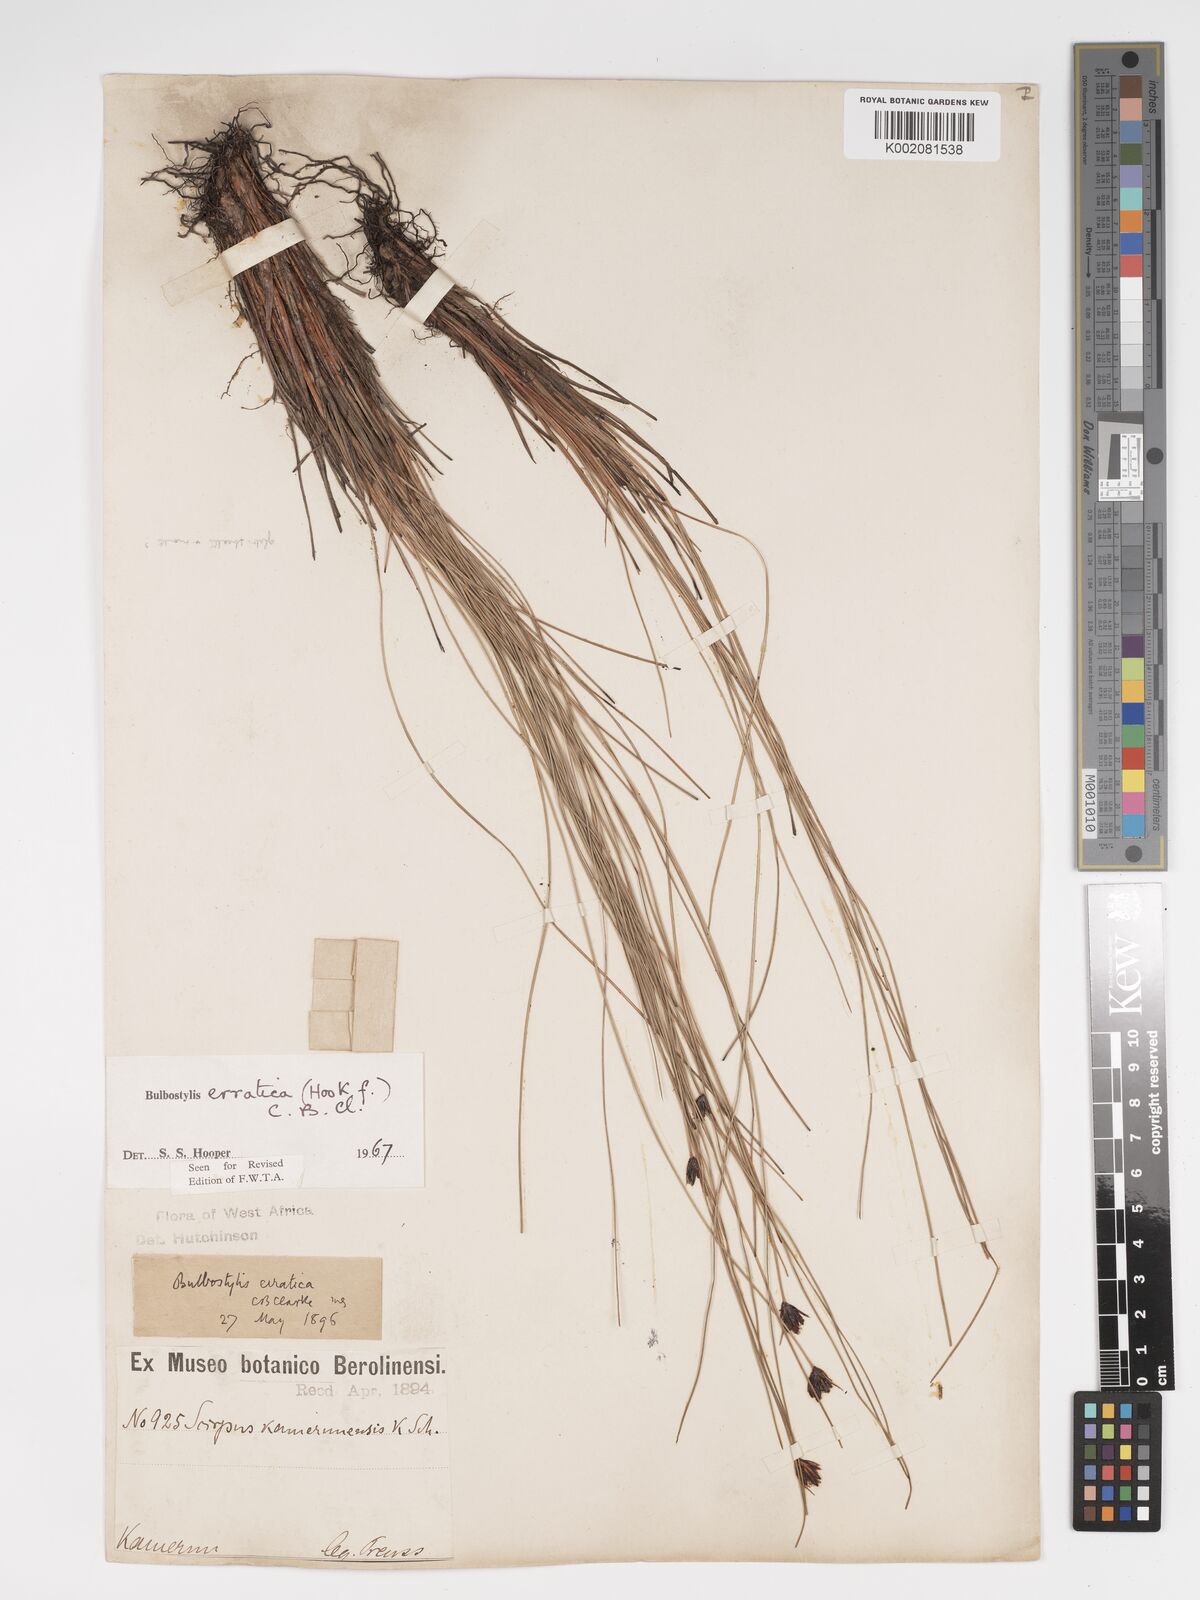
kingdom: Plantae
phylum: Tracheophyta
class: Liliopsida
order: Poales
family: Cyperaceae
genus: Bulbostylis
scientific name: Bulbostylis schoenoides
